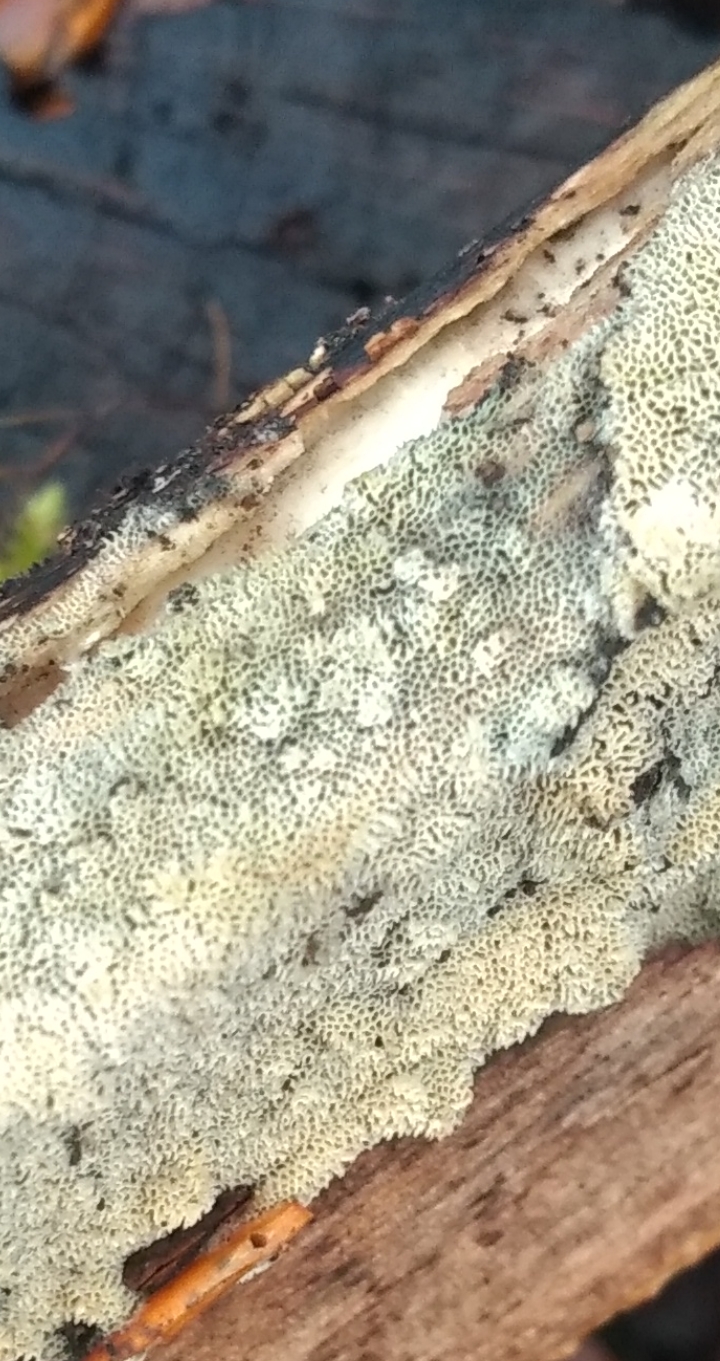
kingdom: Fungi
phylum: Basidiomycota
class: Agaricomycetes
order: Hymenochaetales
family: Schizoporaceae
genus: Xylodon
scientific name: Xylodon
